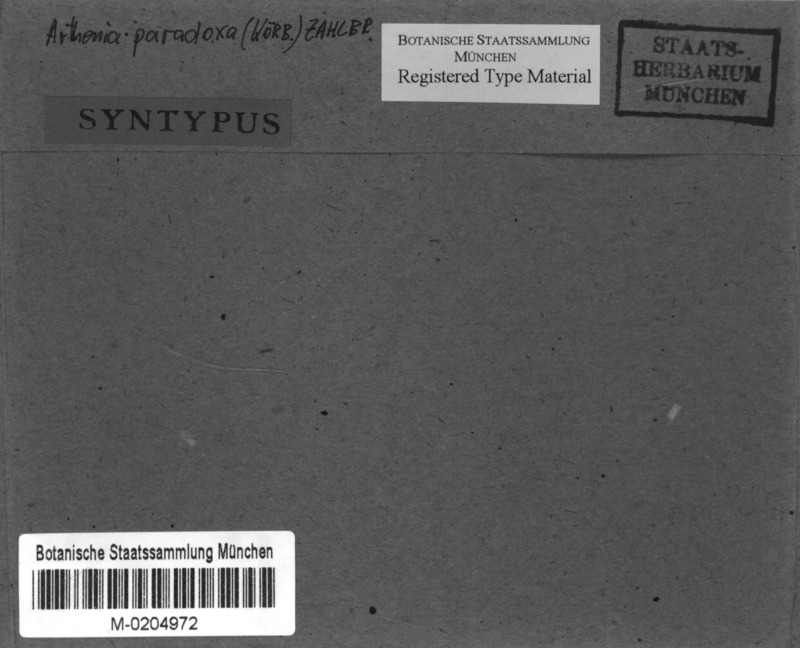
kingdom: Fungi
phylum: Ascomycota
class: Arthoniomycetes
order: Arthoniales
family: Arthoniaceae
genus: Arthonia
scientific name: Arthonia paradoxa
